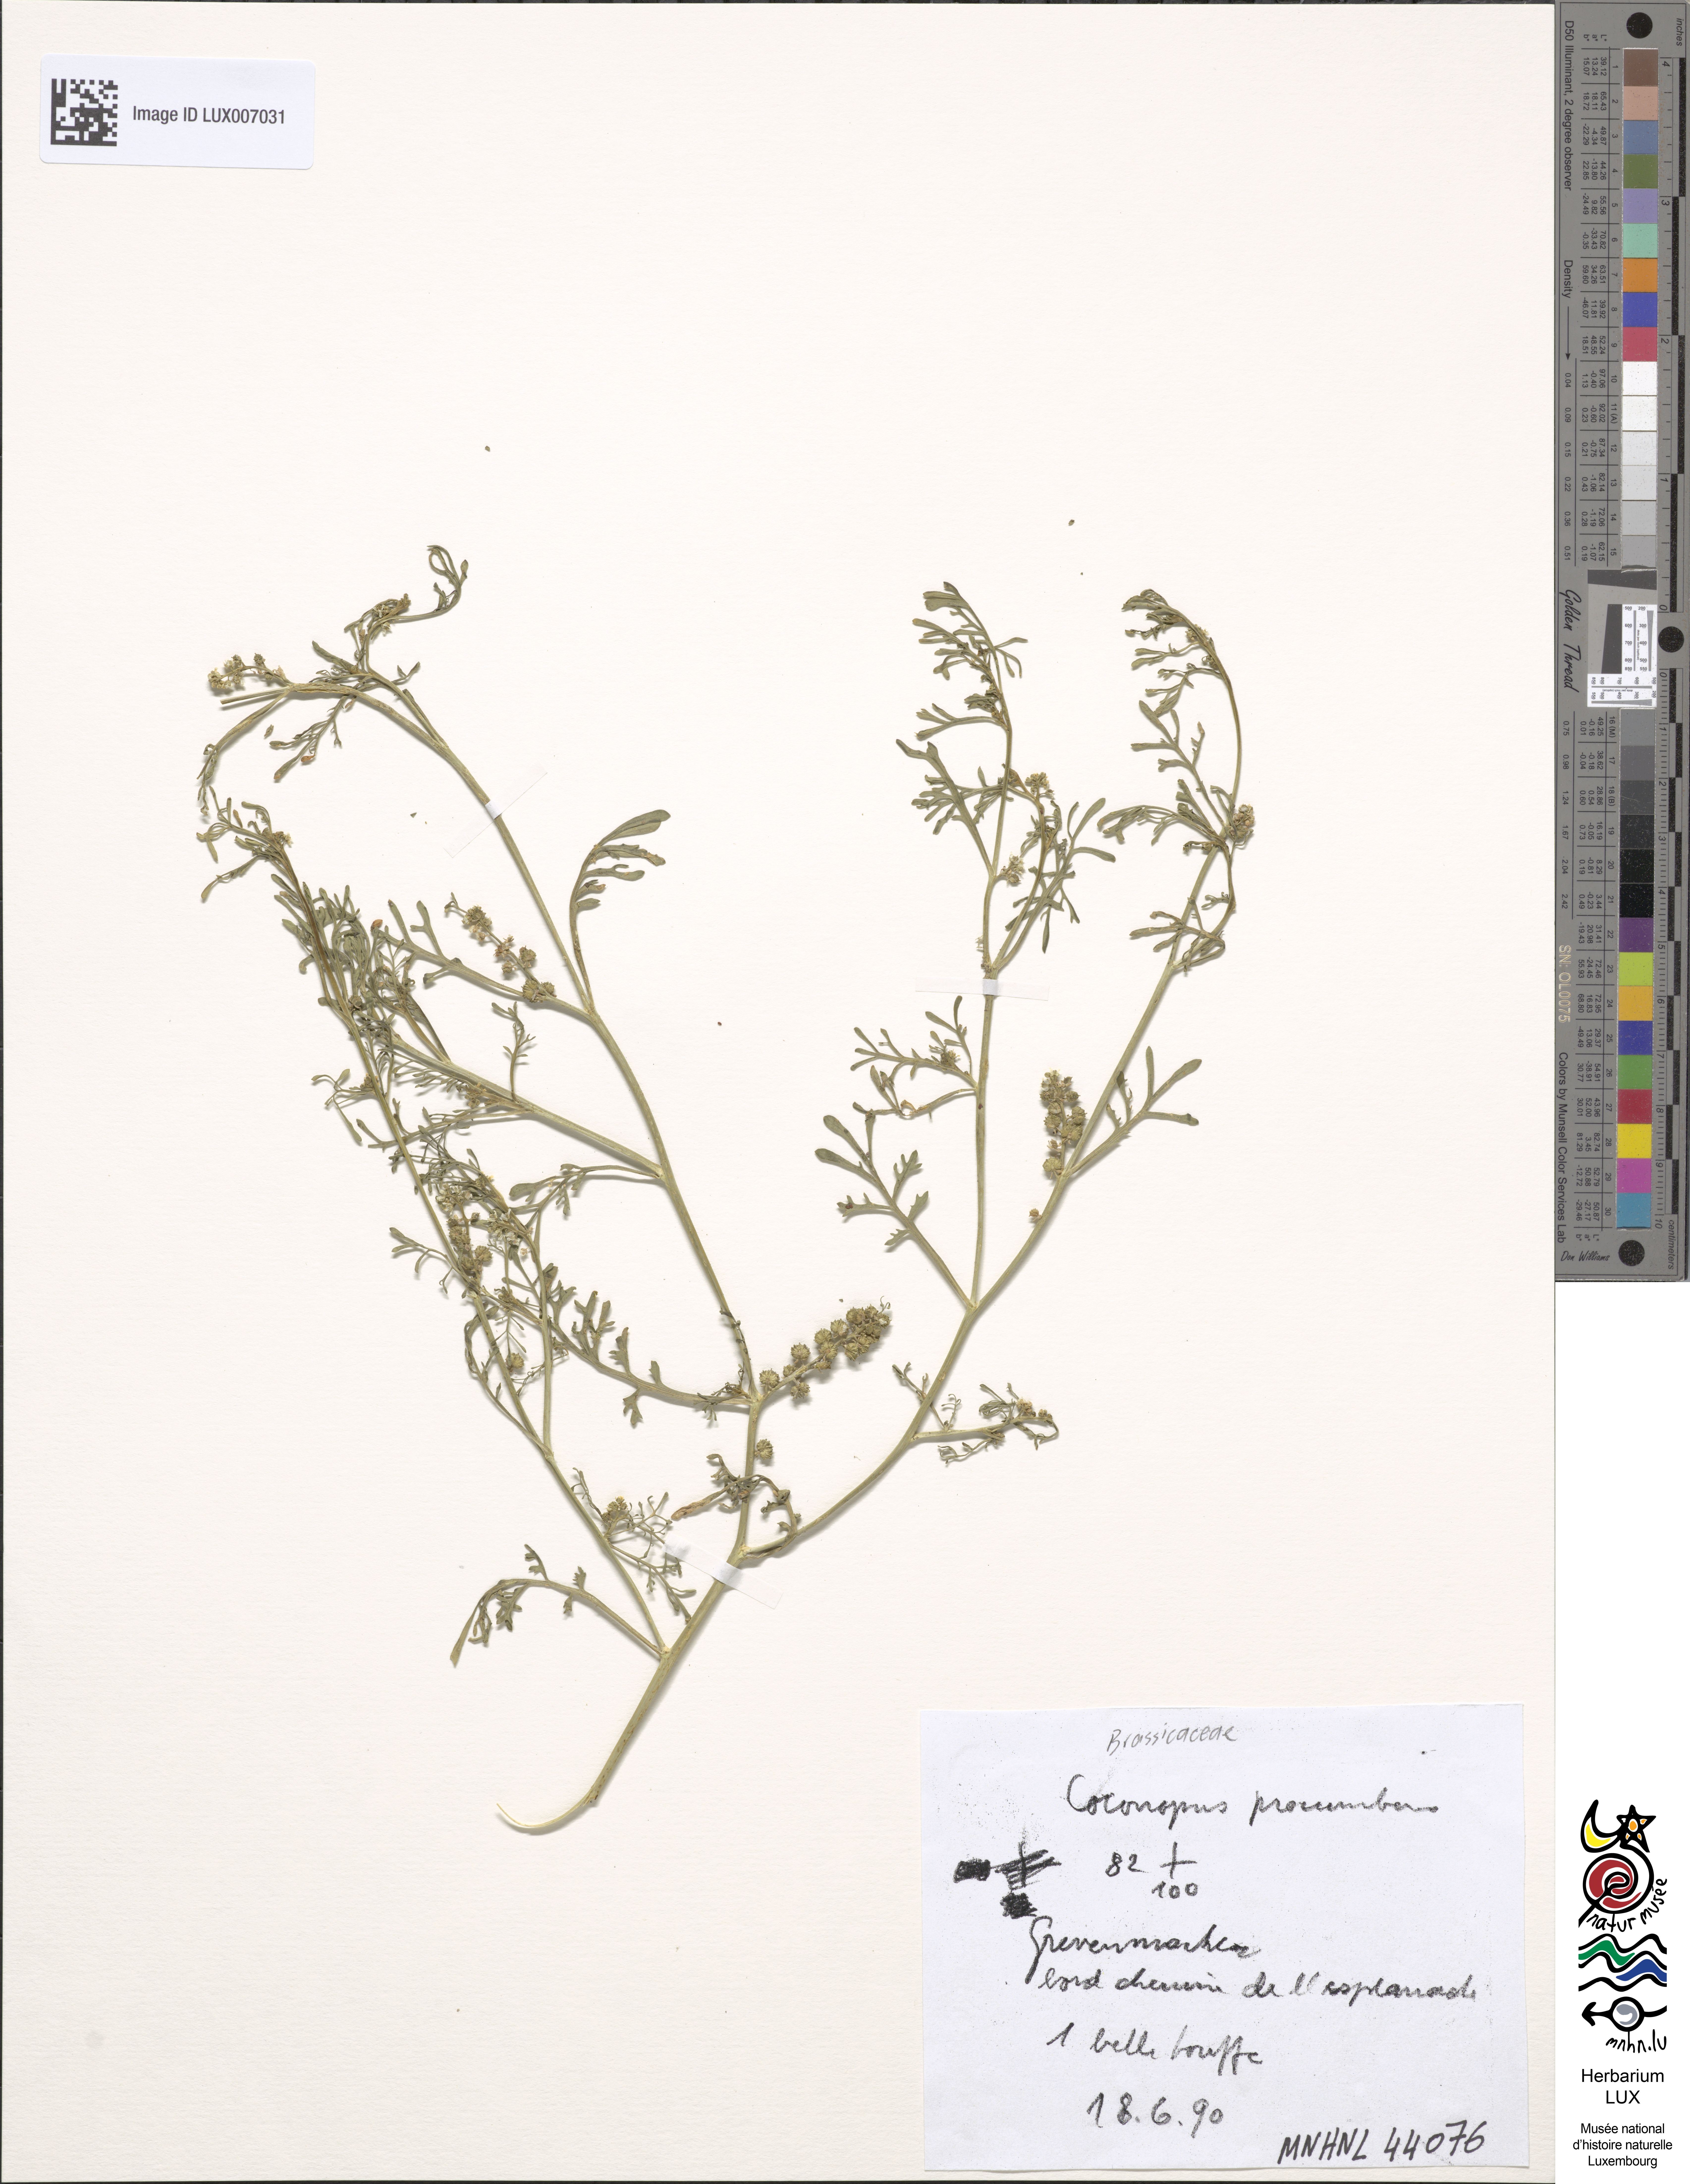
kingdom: Plantae
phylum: Tracheophyta
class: Magnoliopsida
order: Brassicales
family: Brassicaceae
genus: Lepidium
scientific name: Lepidium coronopus
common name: Greater swinecress
